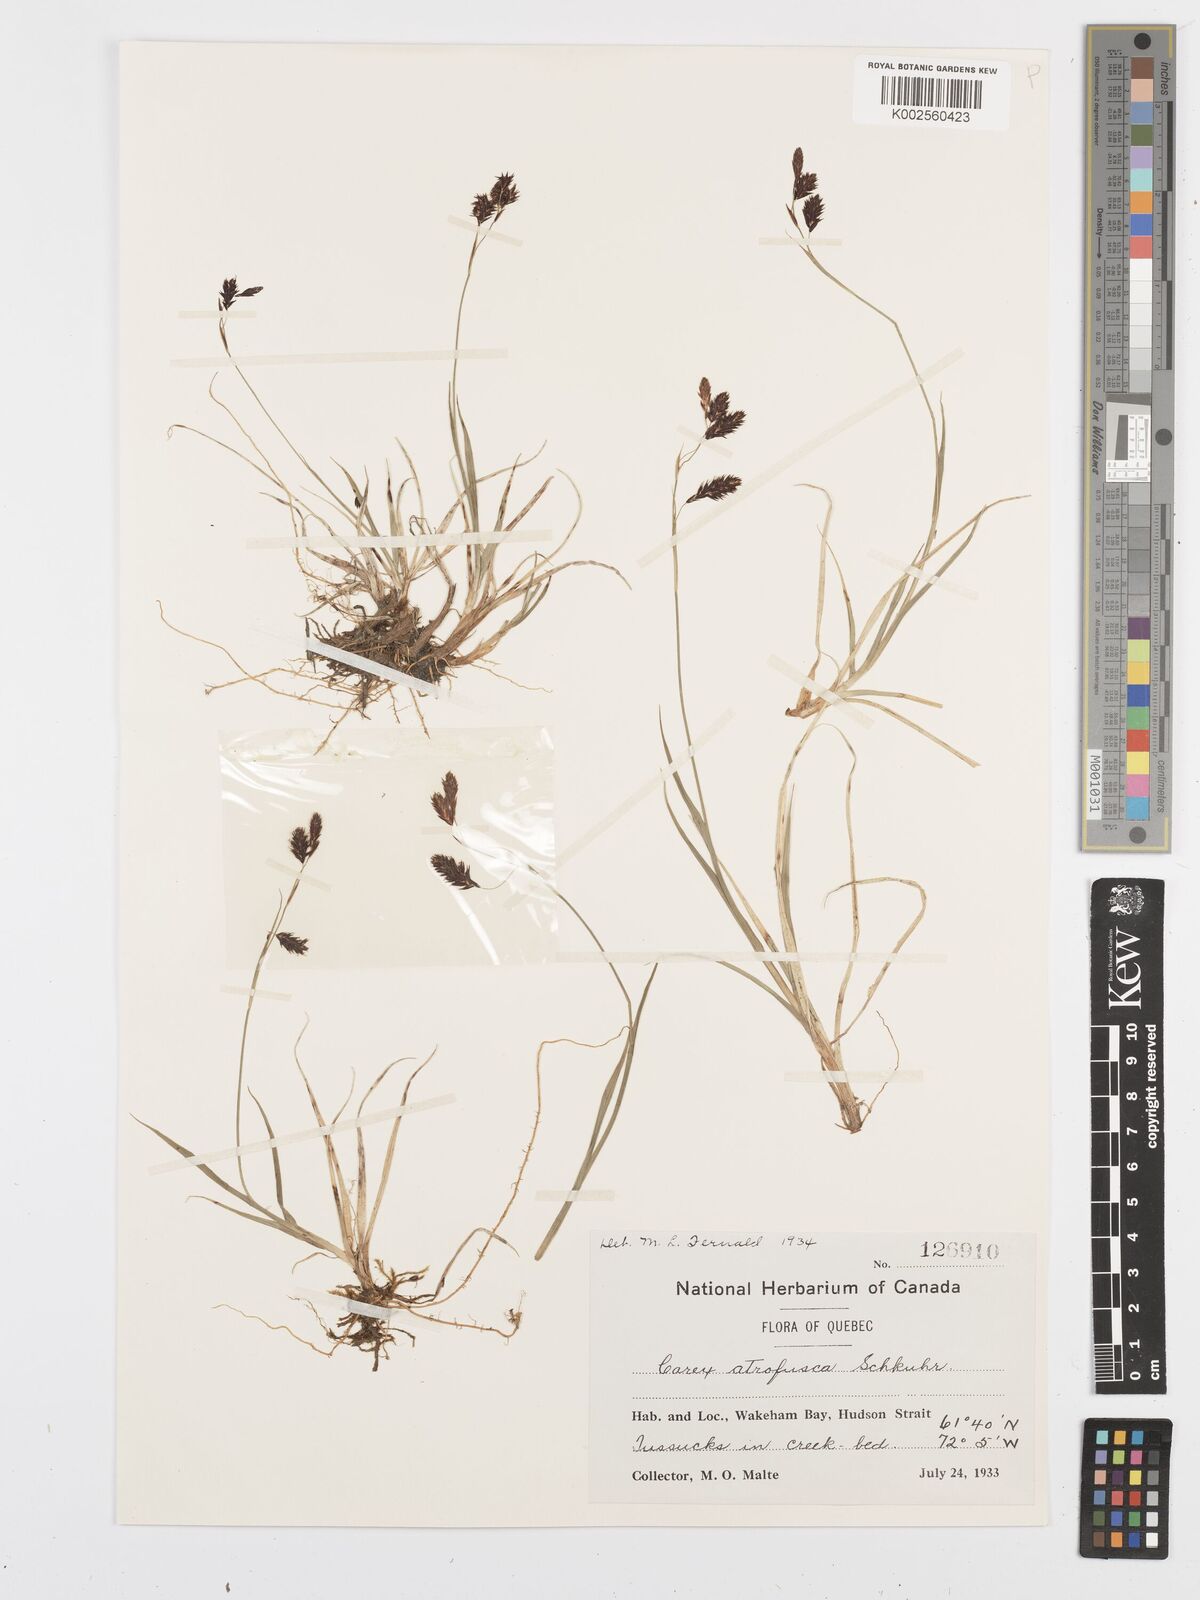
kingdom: Plantae
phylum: Tracheophyta
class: Liliopsida
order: Poales
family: Cyperaceae
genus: Carex
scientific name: Carex atrofusca
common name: Scorched alpine-sedge
